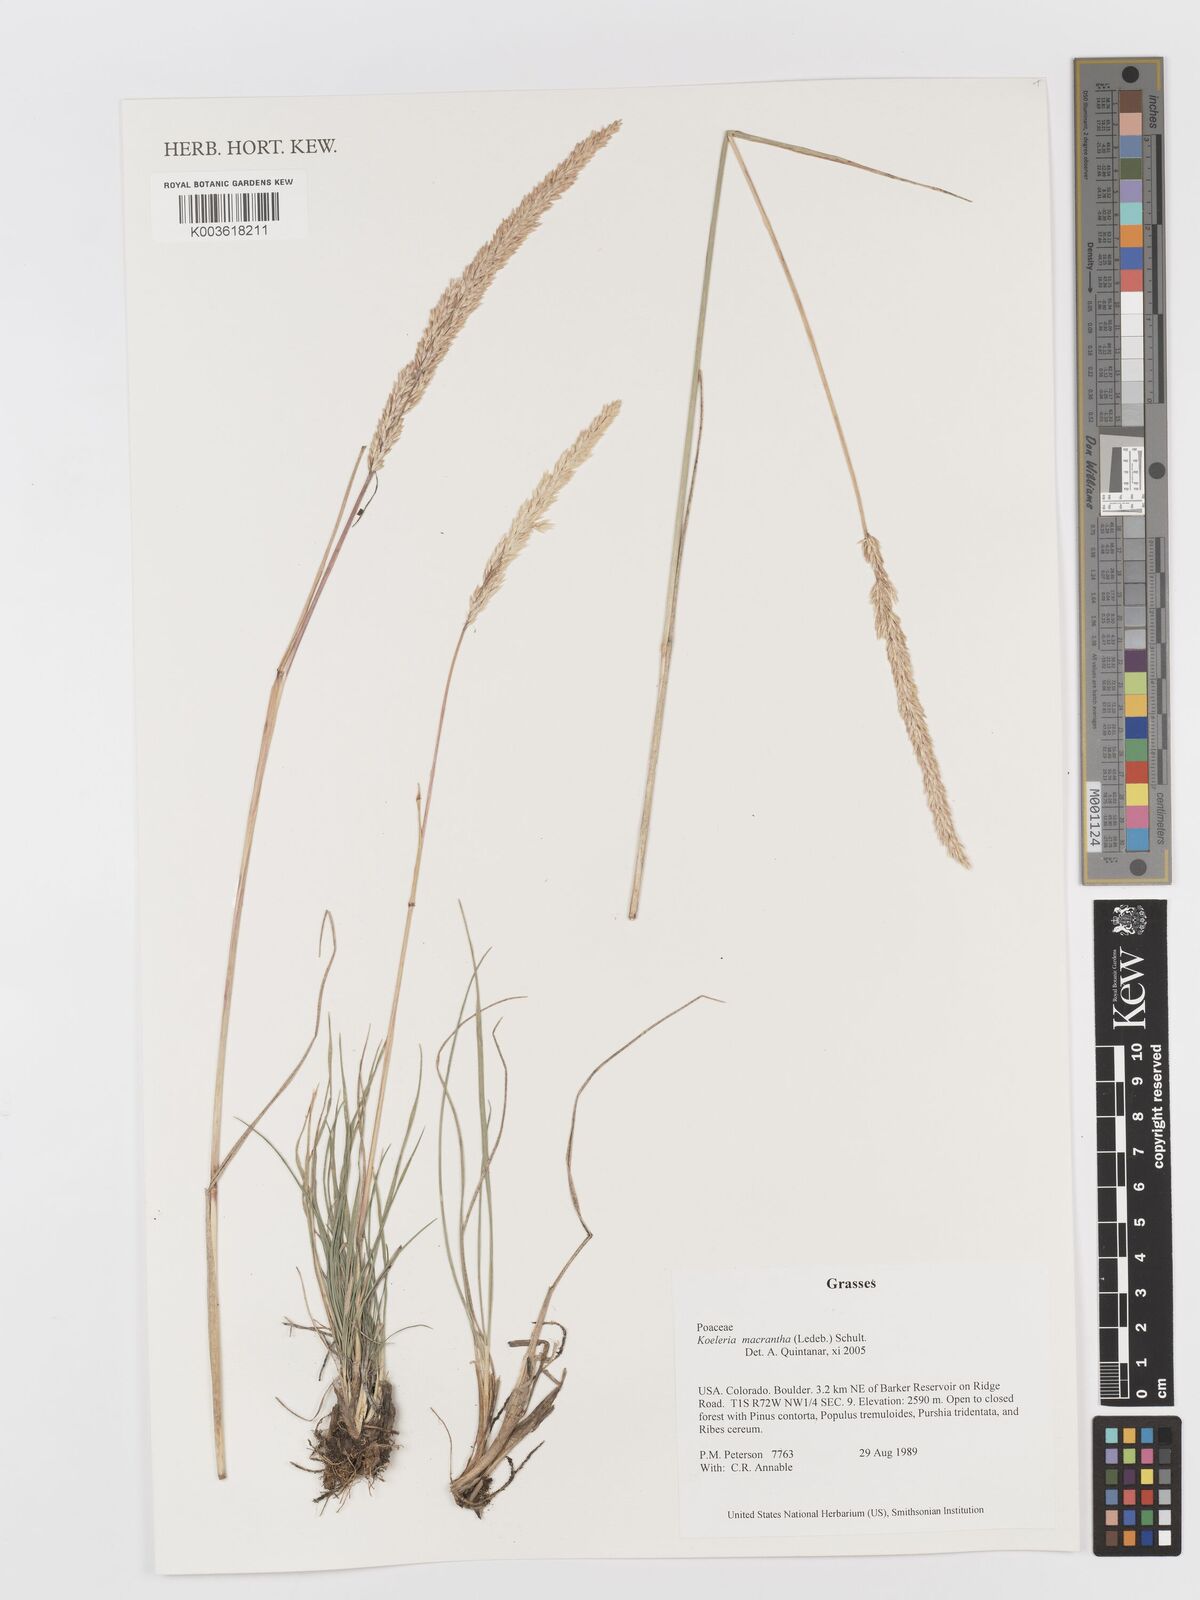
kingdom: Plantae
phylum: Tracheophyta
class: Liliopsida
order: Poales
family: Poaceae
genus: Koeleria
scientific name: Koeleria macrantha
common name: Crested hair-grass
